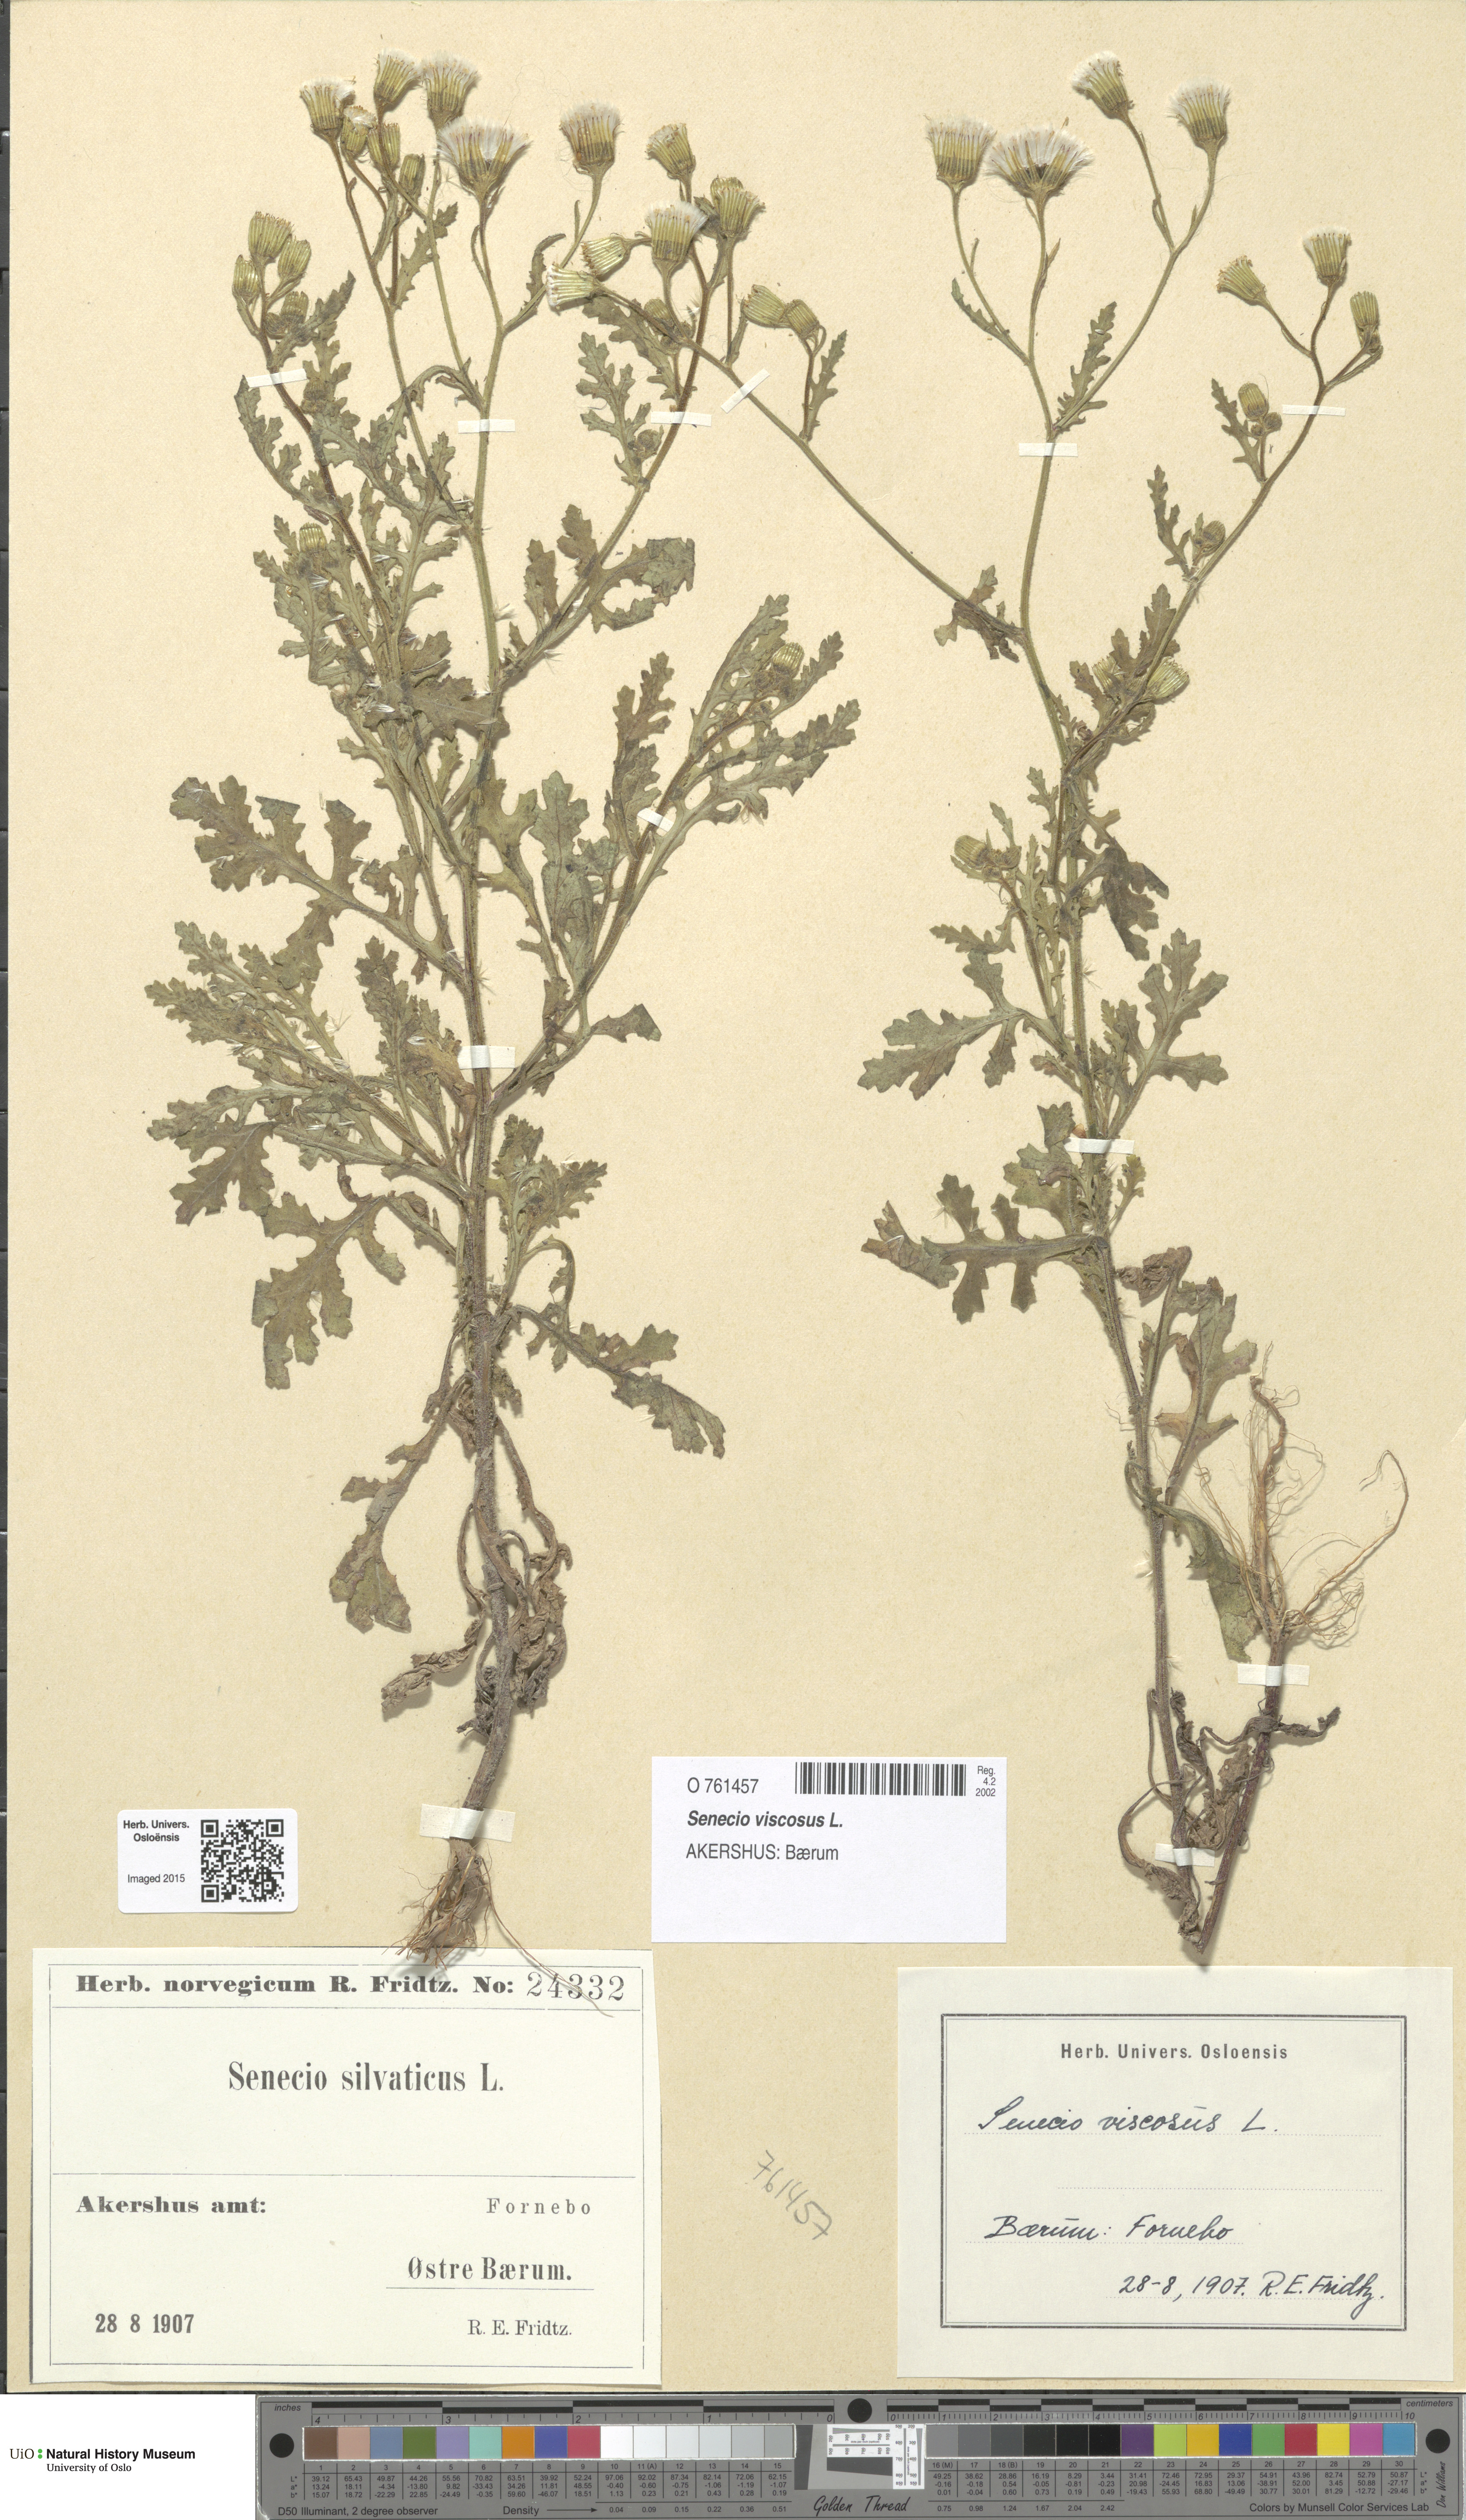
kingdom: Plantae
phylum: Tracheophyta
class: Magnoliopsida
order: Asterales
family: Asteraceae
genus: Senecio
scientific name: Senecio viscosus
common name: Sticky groundsel
